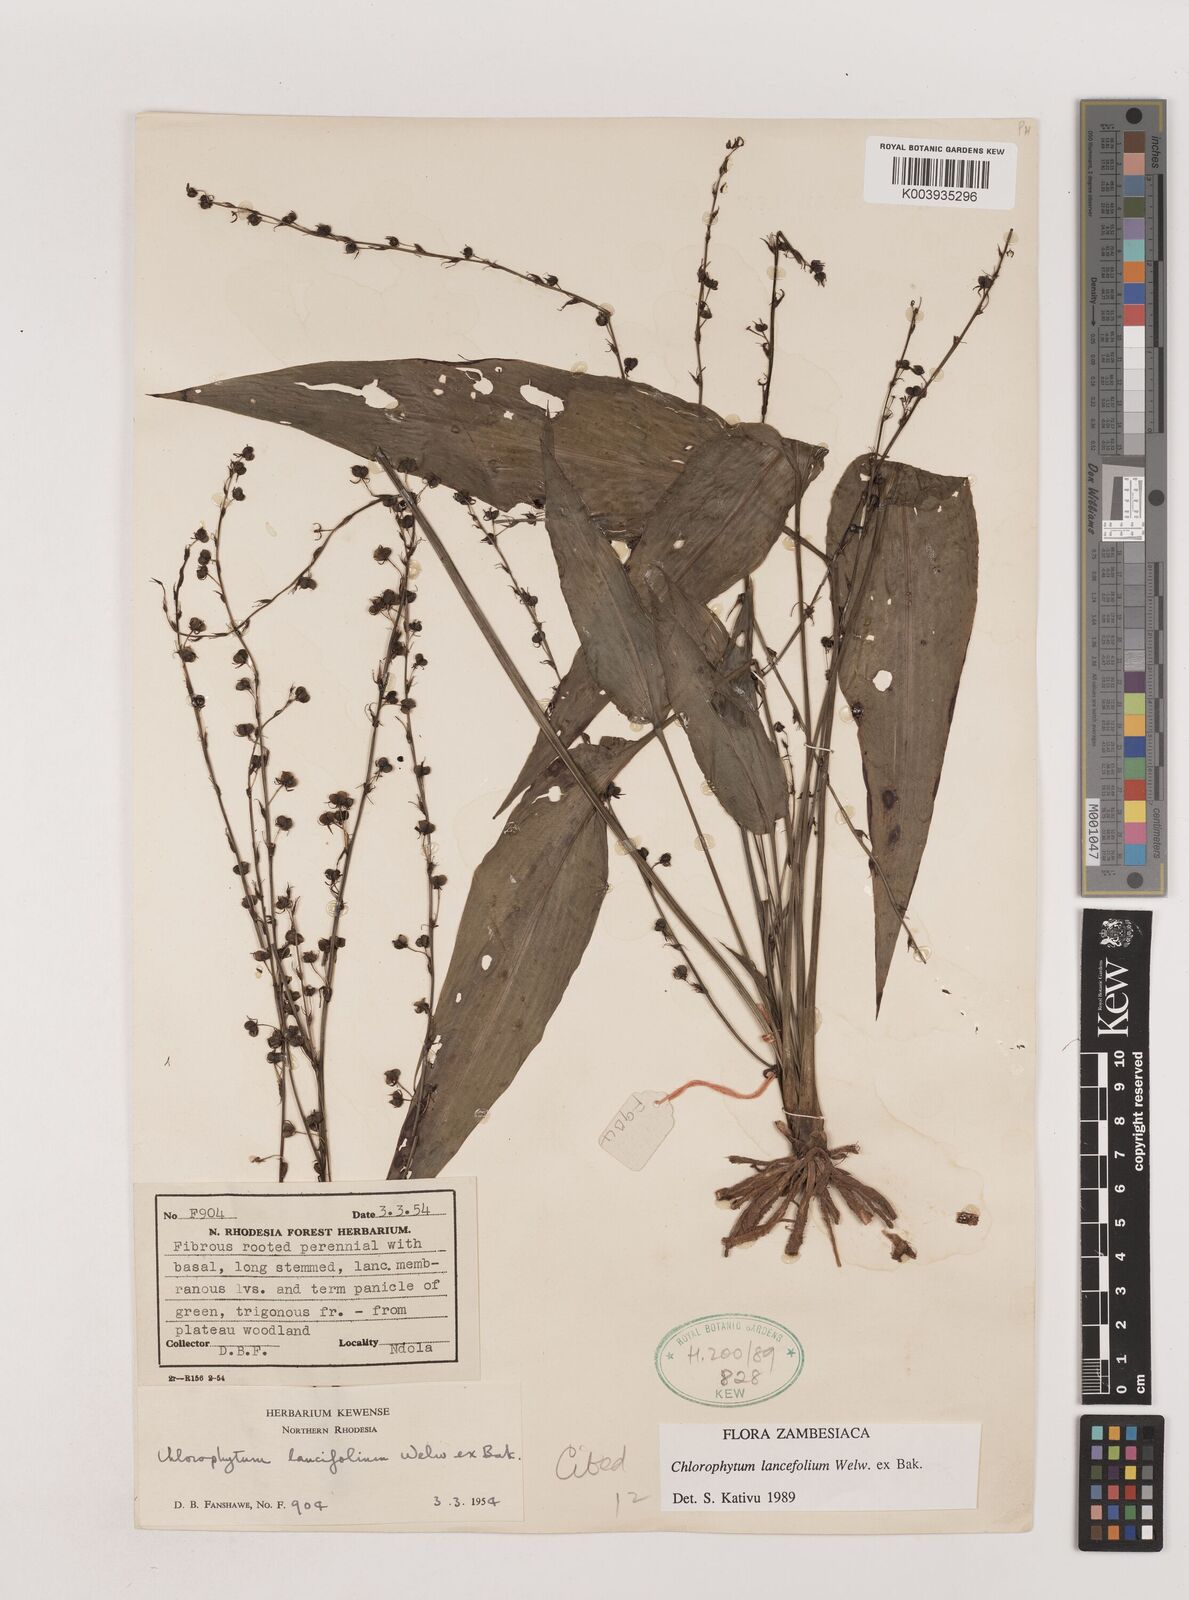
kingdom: Plantae
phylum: Tracheophyta
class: Liliopsida
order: Asparagales
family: Asparagaceae
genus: Chlorophytum
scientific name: Chlorophytum lancifolium
